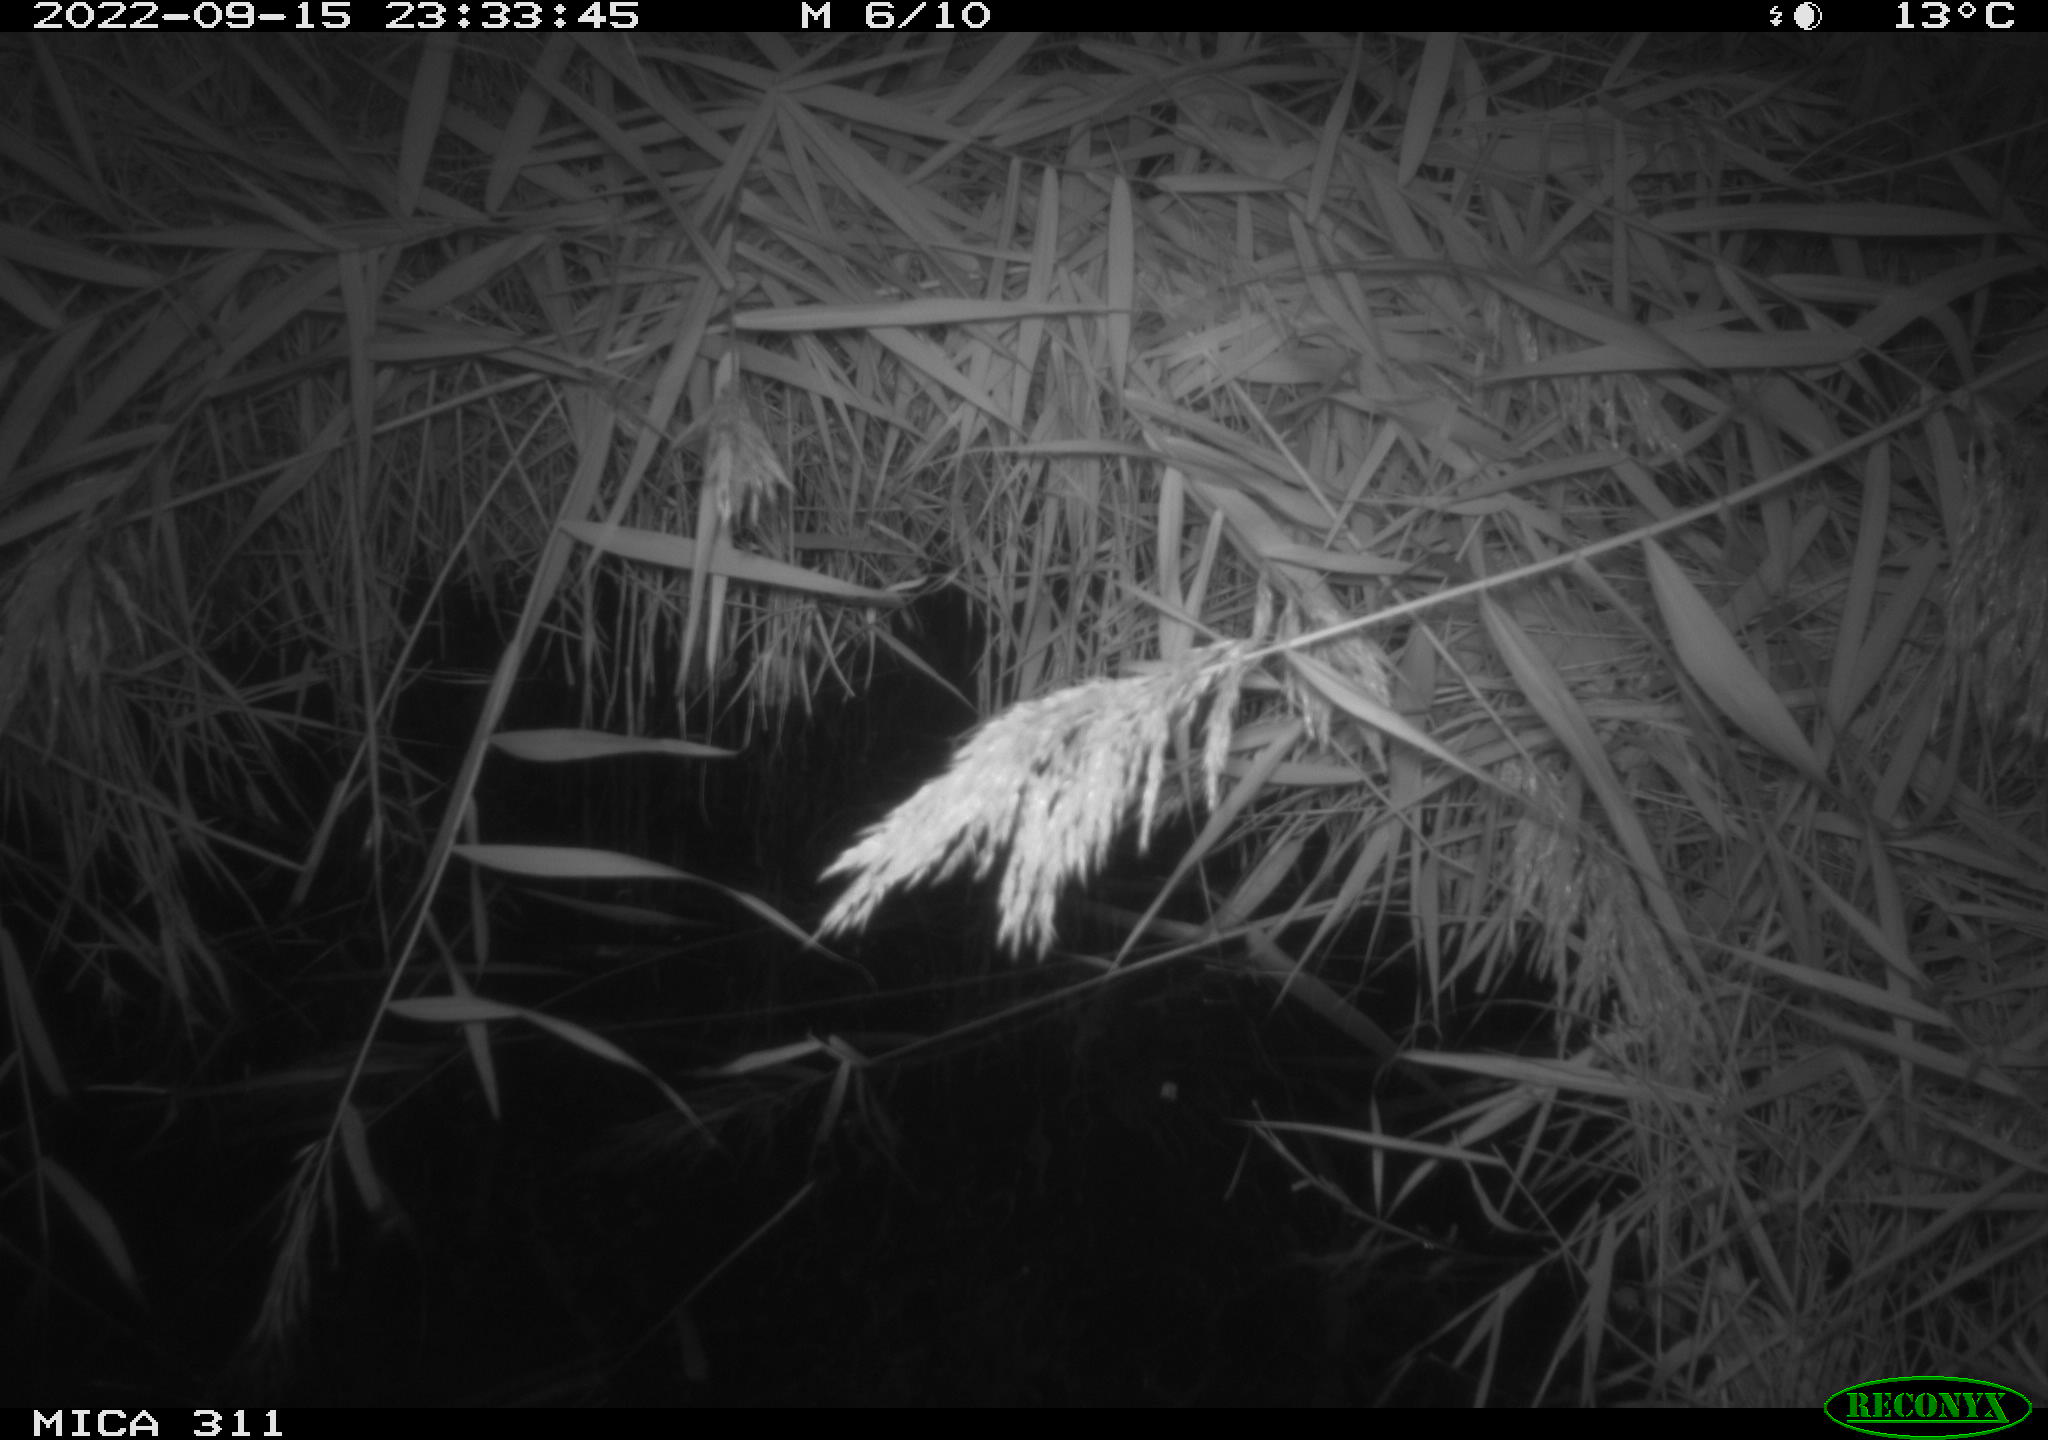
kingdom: Animalia
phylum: Chordata
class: Mammalia
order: Rodentia
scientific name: Rodentia
